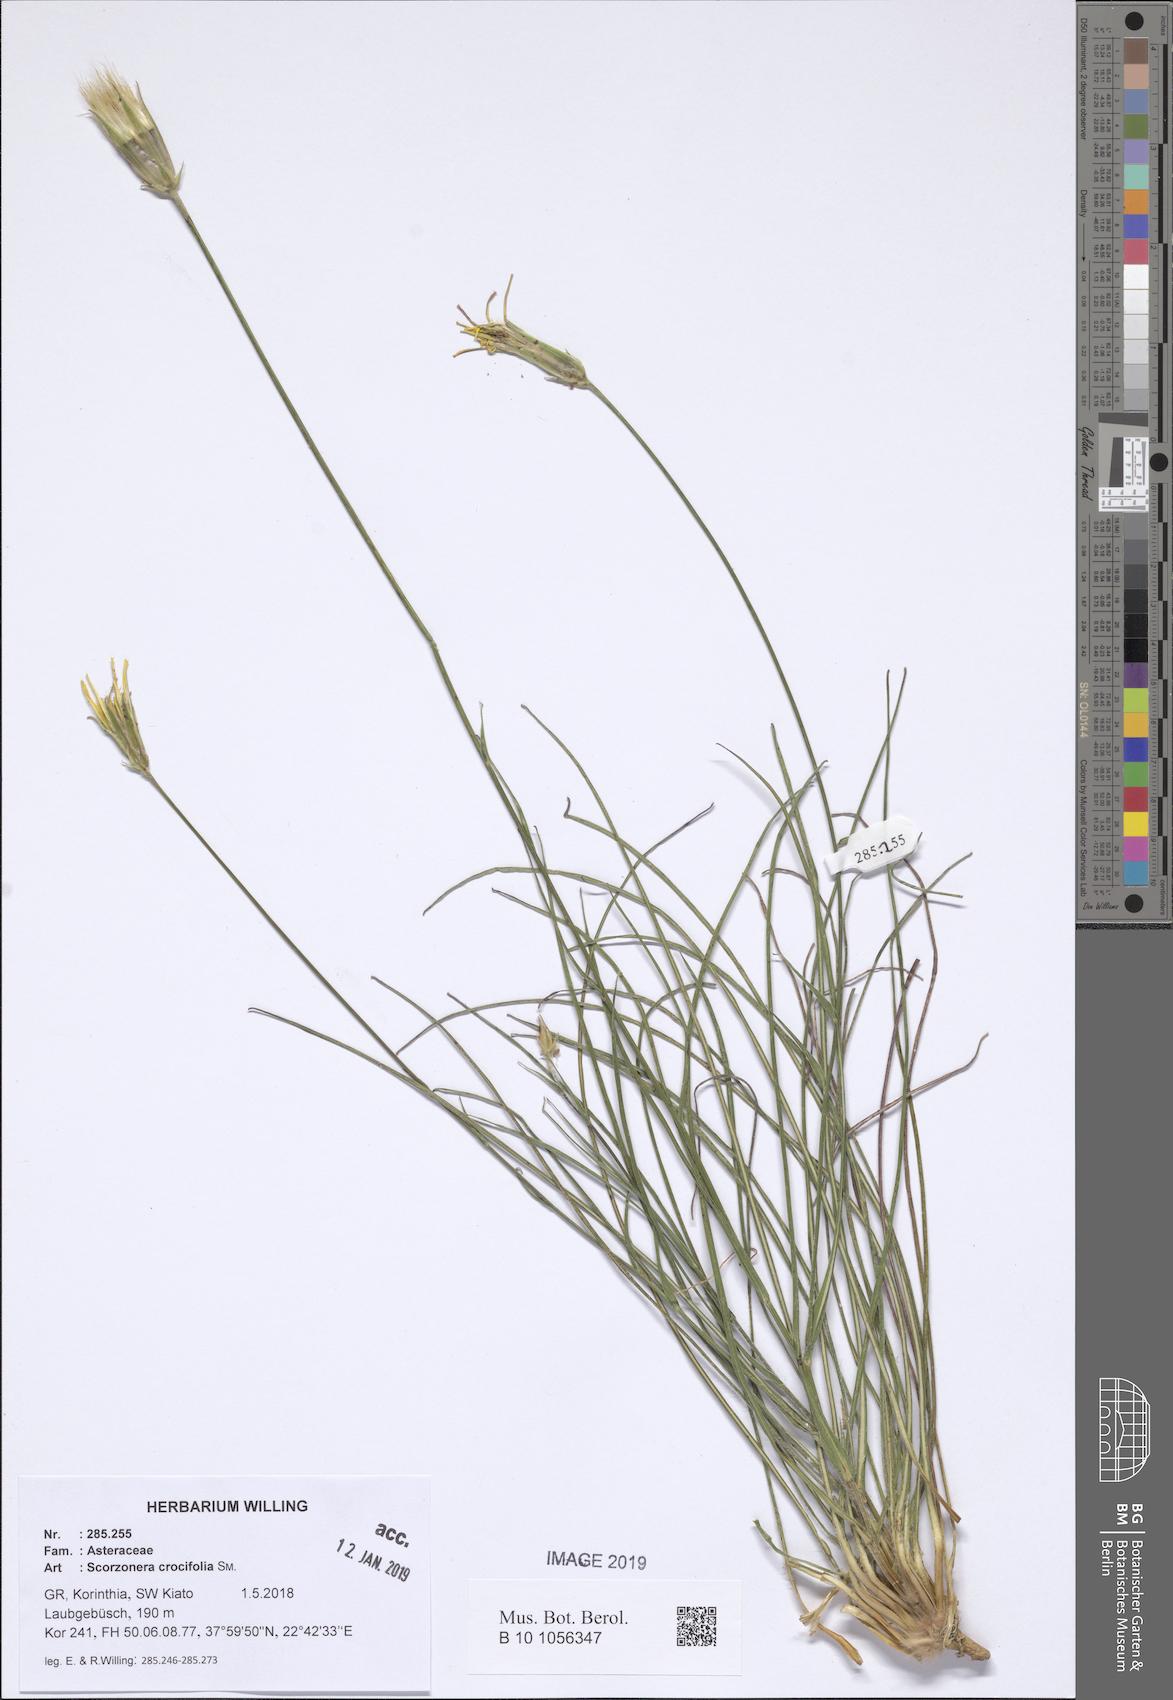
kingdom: Plantae
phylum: Tracheophyta
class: Magnoliopsida
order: Asterales
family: Asteraceae
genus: Pseudopodospermum
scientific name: Pseudopodospermum crocifolium
